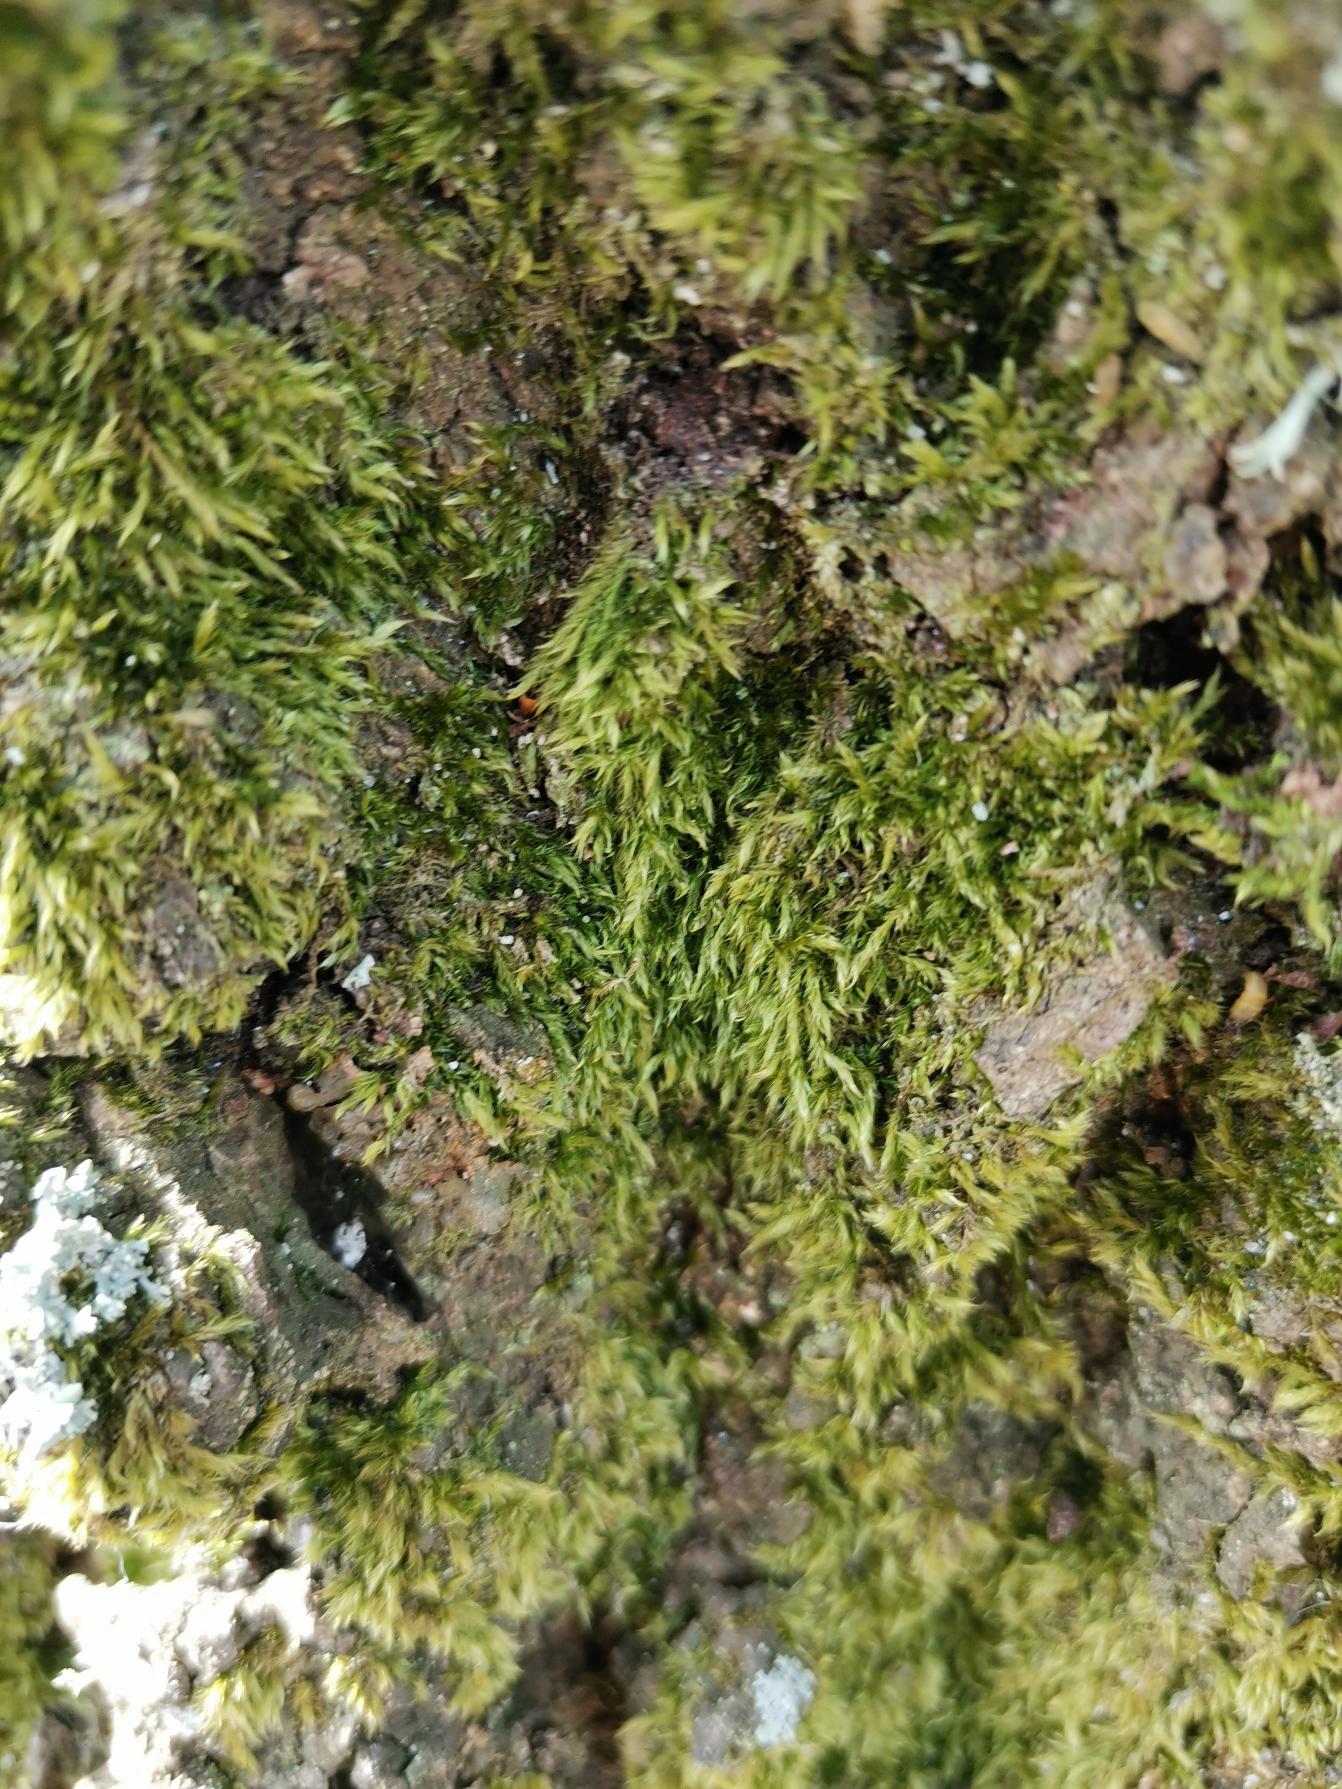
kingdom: Plantae
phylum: Bryophyta
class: Bryopsida
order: Hypnales
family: Hypnaceae
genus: Hypnum
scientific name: Hypnum
